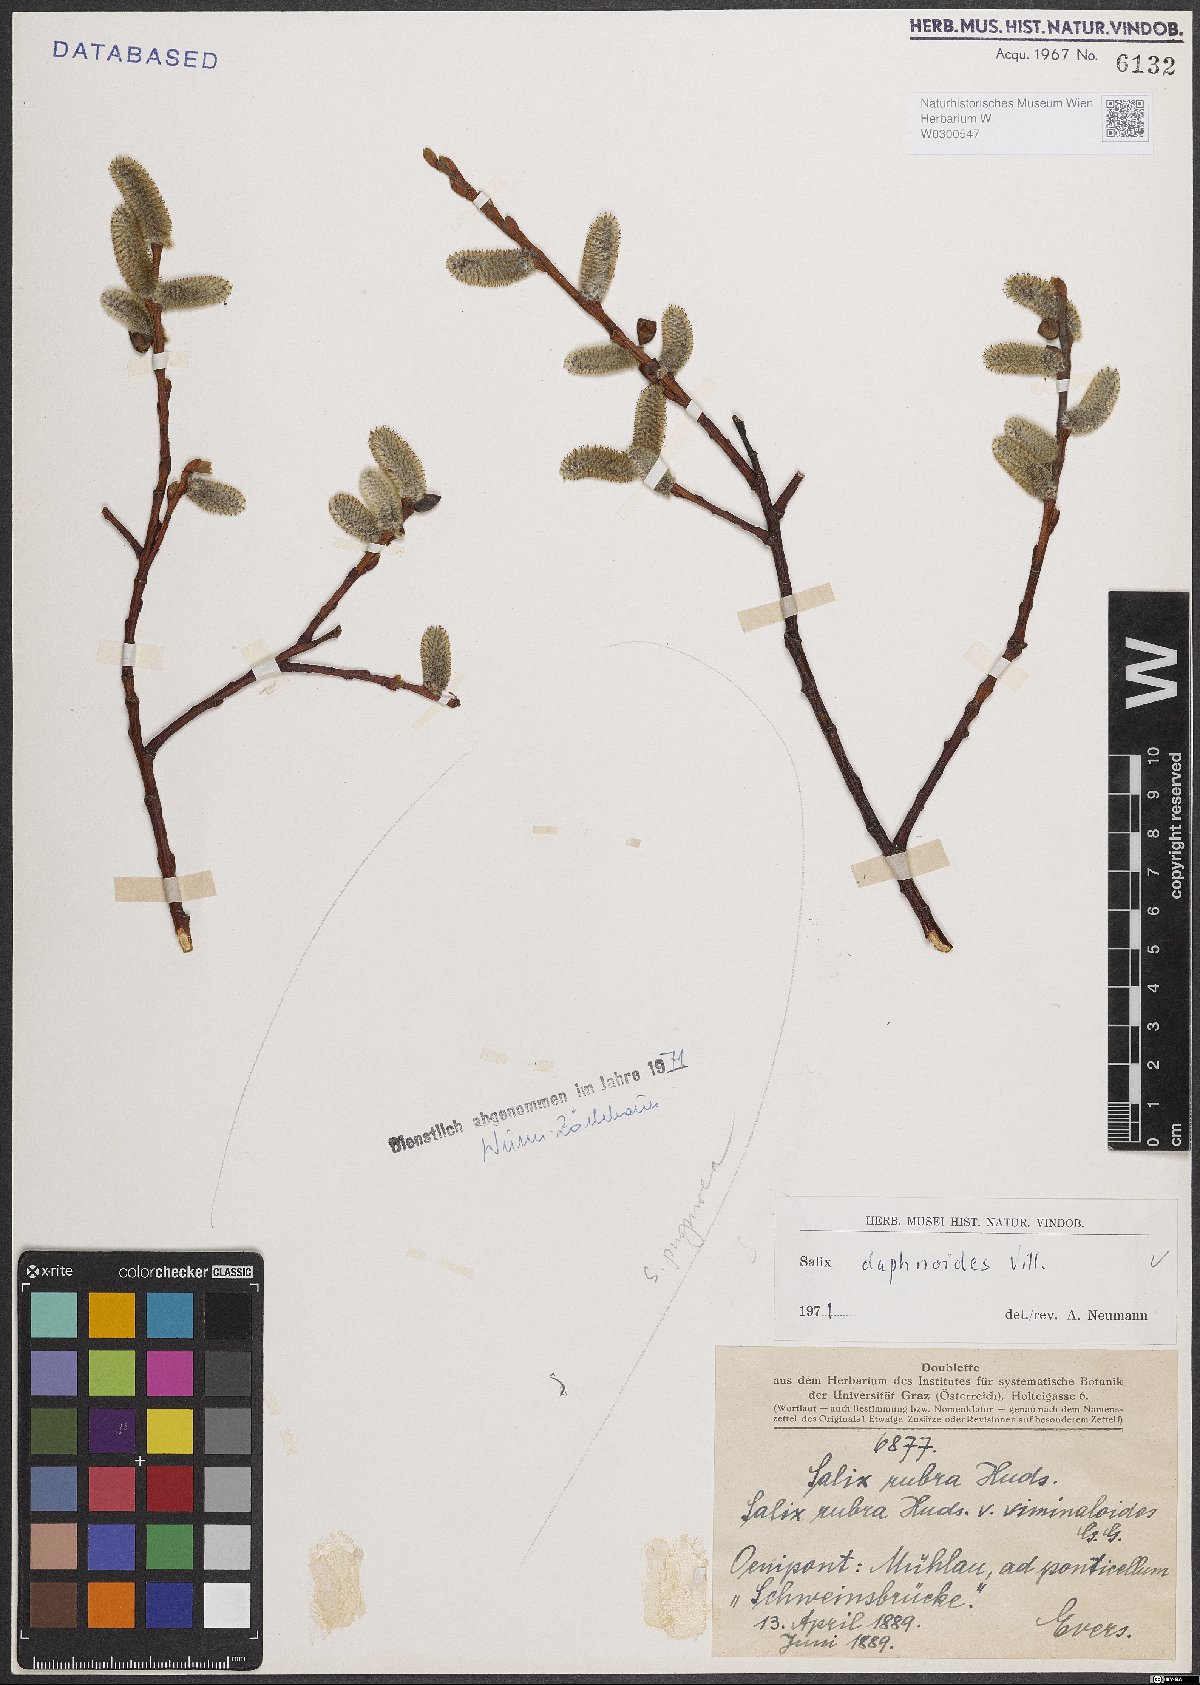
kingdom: Plantae
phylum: Tracheophyta
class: Magnoliopsida
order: Malpighiales
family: Salicaceae
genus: Salix
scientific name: Salix daphnoides
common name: European violet-willow
